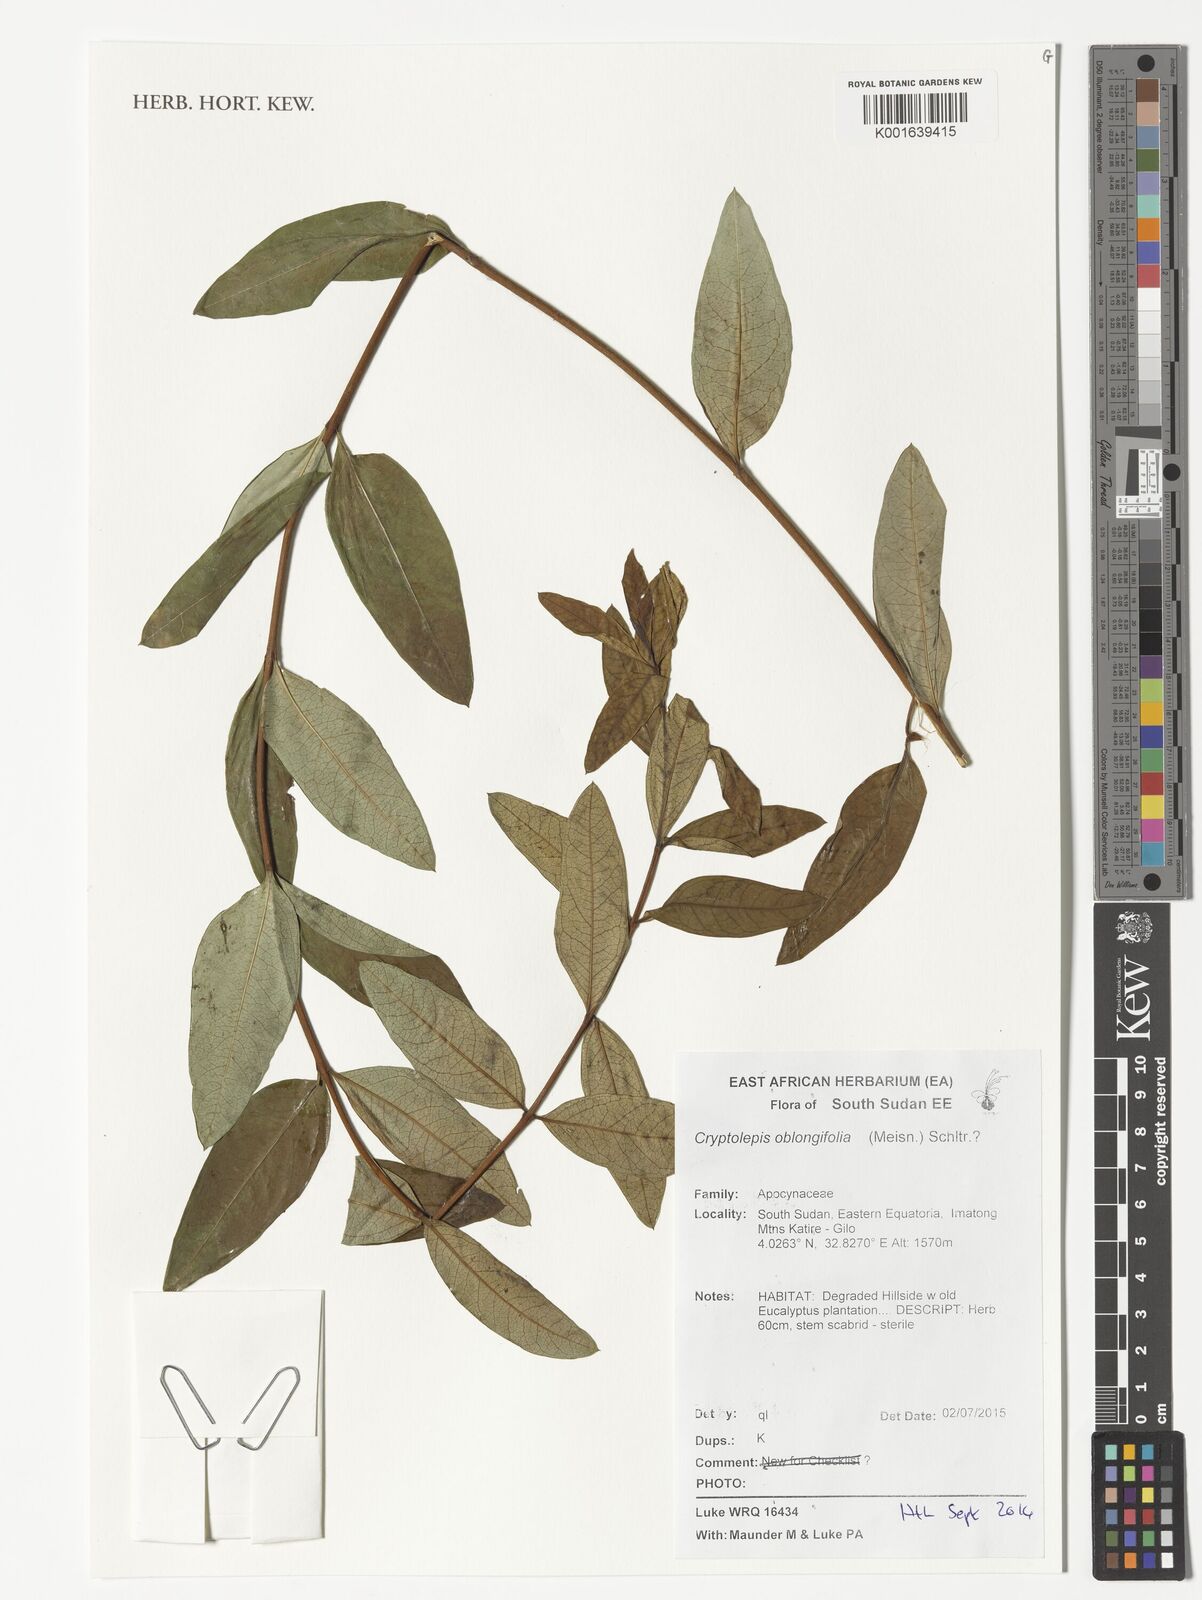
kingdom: Plantae
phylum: Tracheophyta
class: Magnoliopsida
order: Gentianales
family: Apocynaceae
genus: Cryptolepis
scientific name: Cryptolepis oblongifolia
